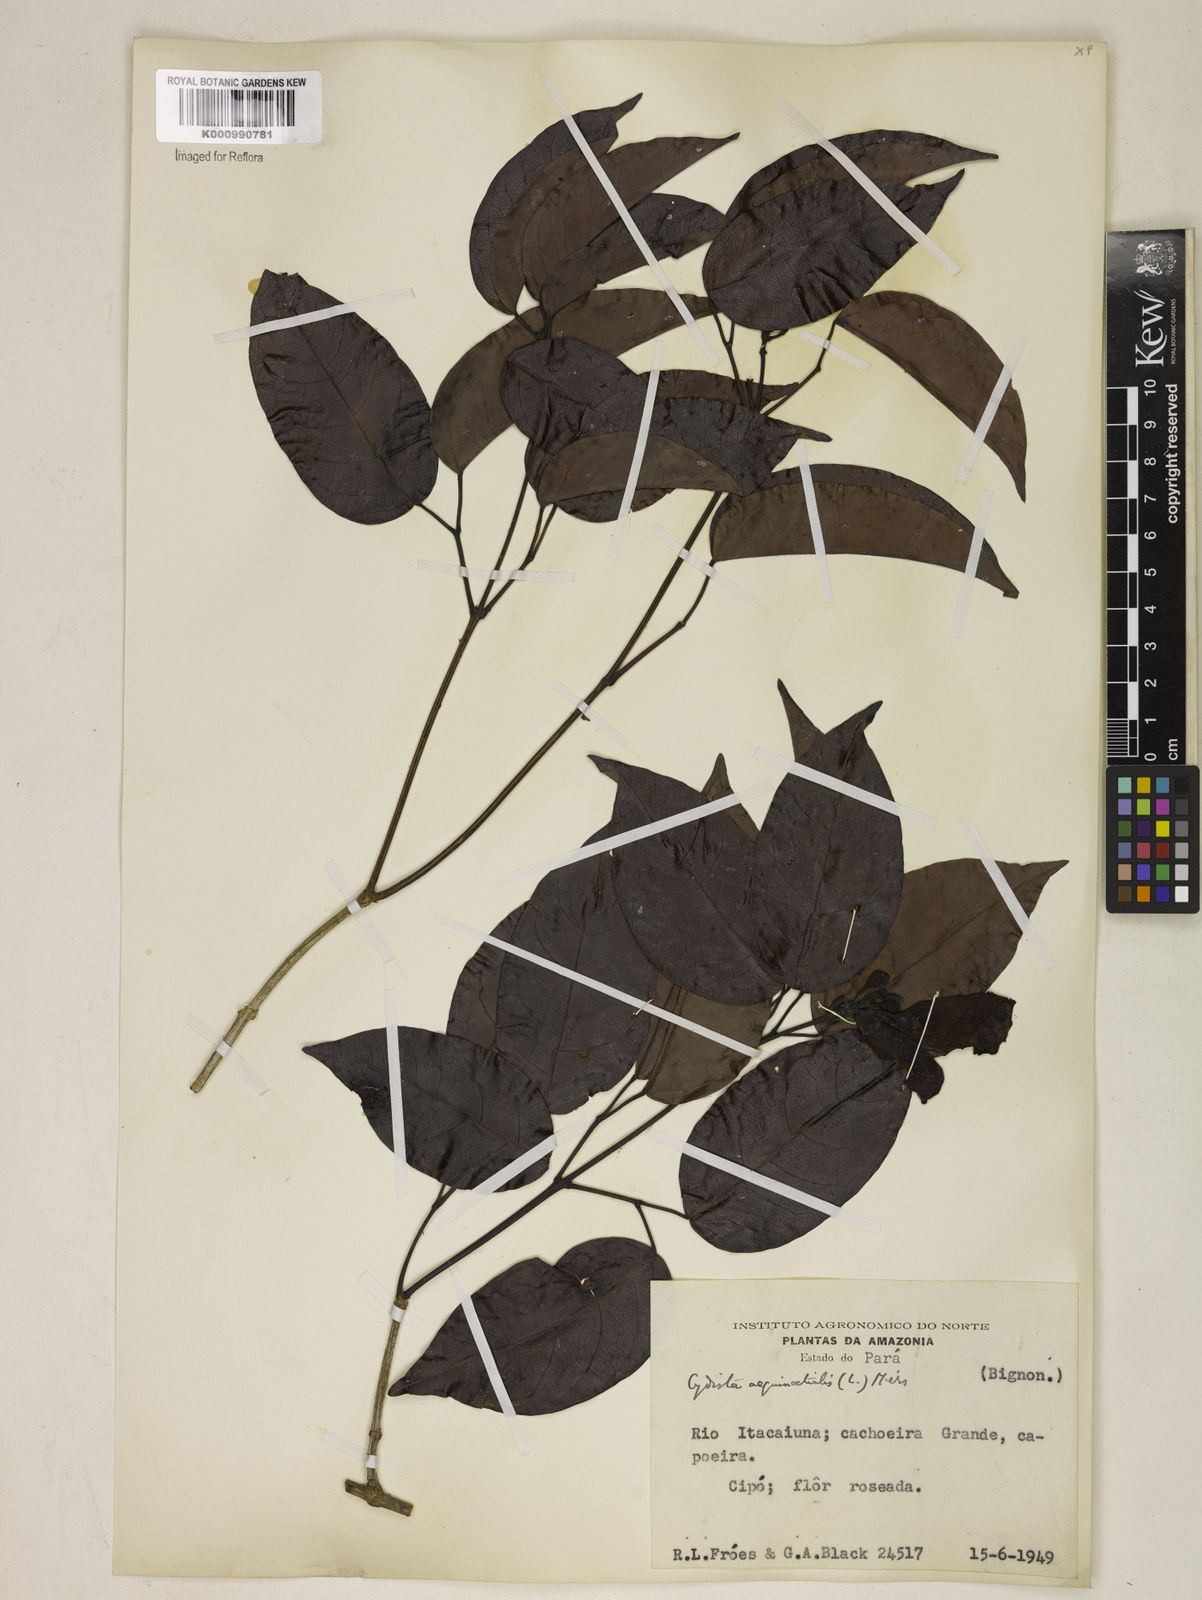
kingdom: Plantae
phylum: Tracheophyta
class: Magnoliopsida
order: Lamiales
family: Bignoniaceae
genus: Bignonia
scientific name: Bignonia aequinoctialis
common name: Garlicvine
